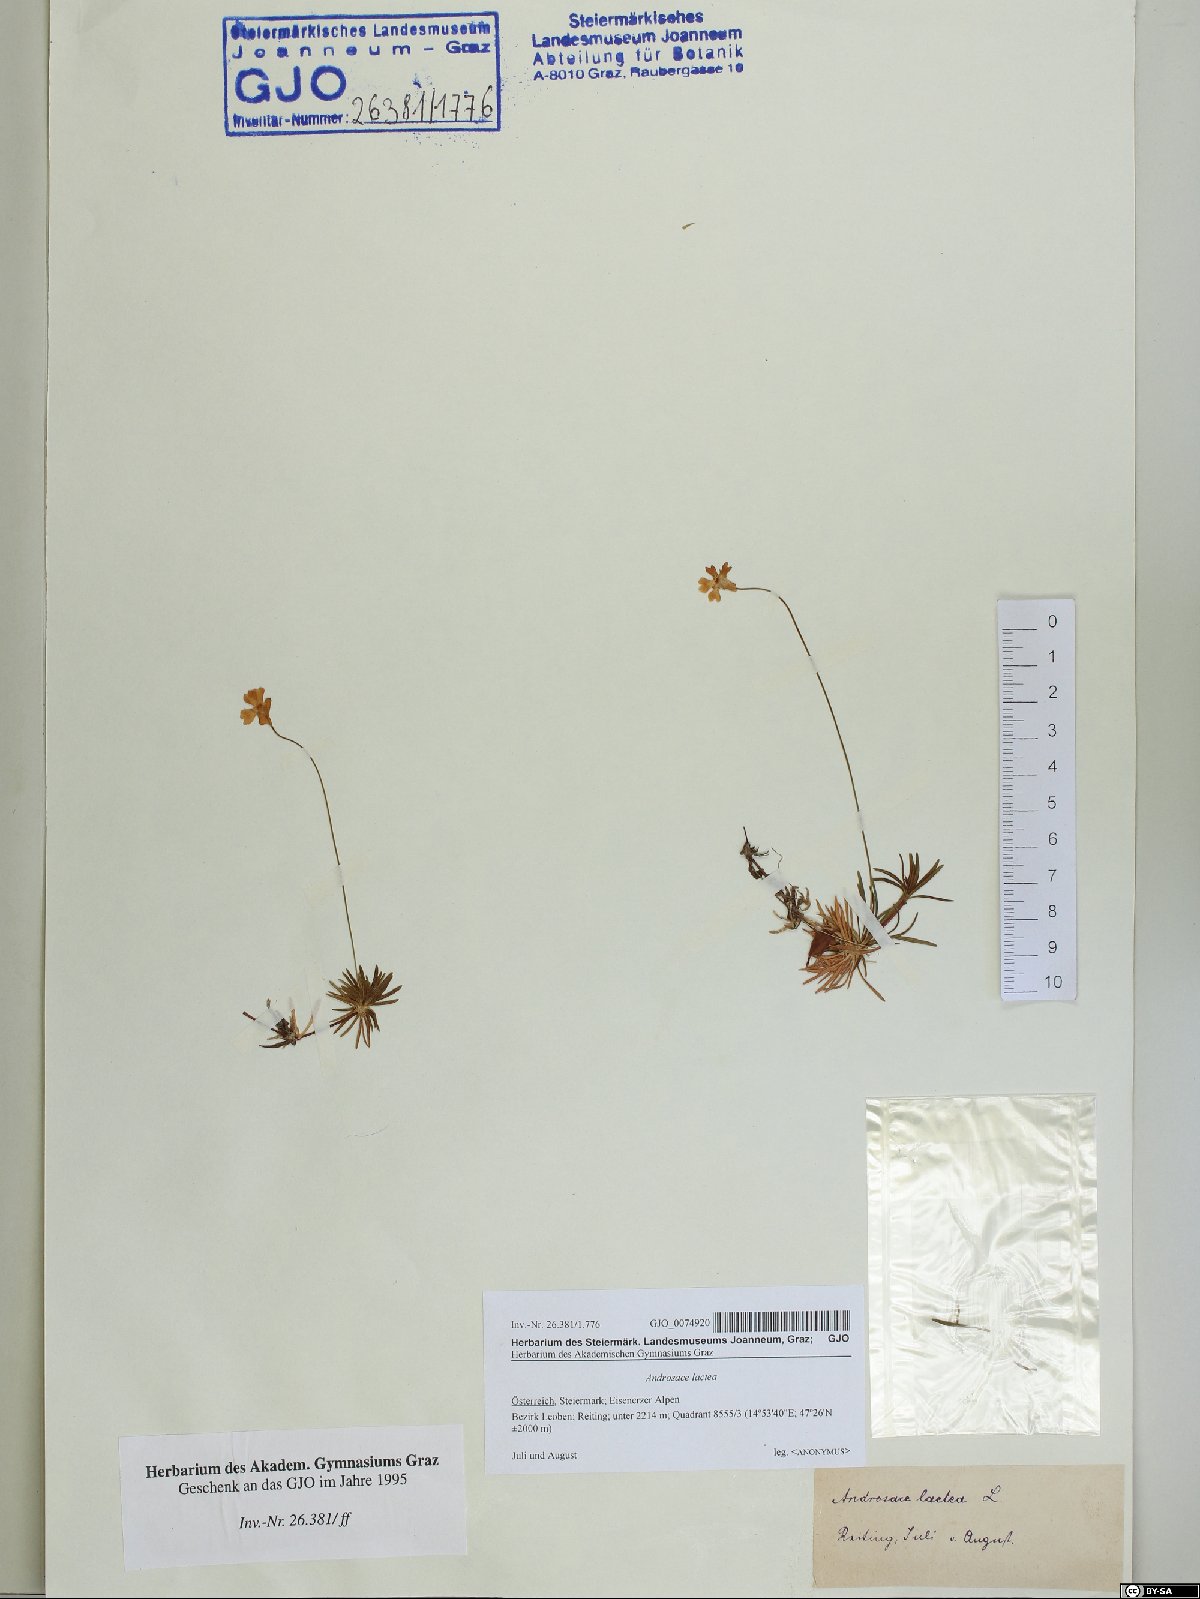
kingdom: Plantae
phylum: Tracheophyta
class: Magnoliopsida
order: Ericales
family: Primulaceae
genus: Androsace
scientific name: Androsace lactea
